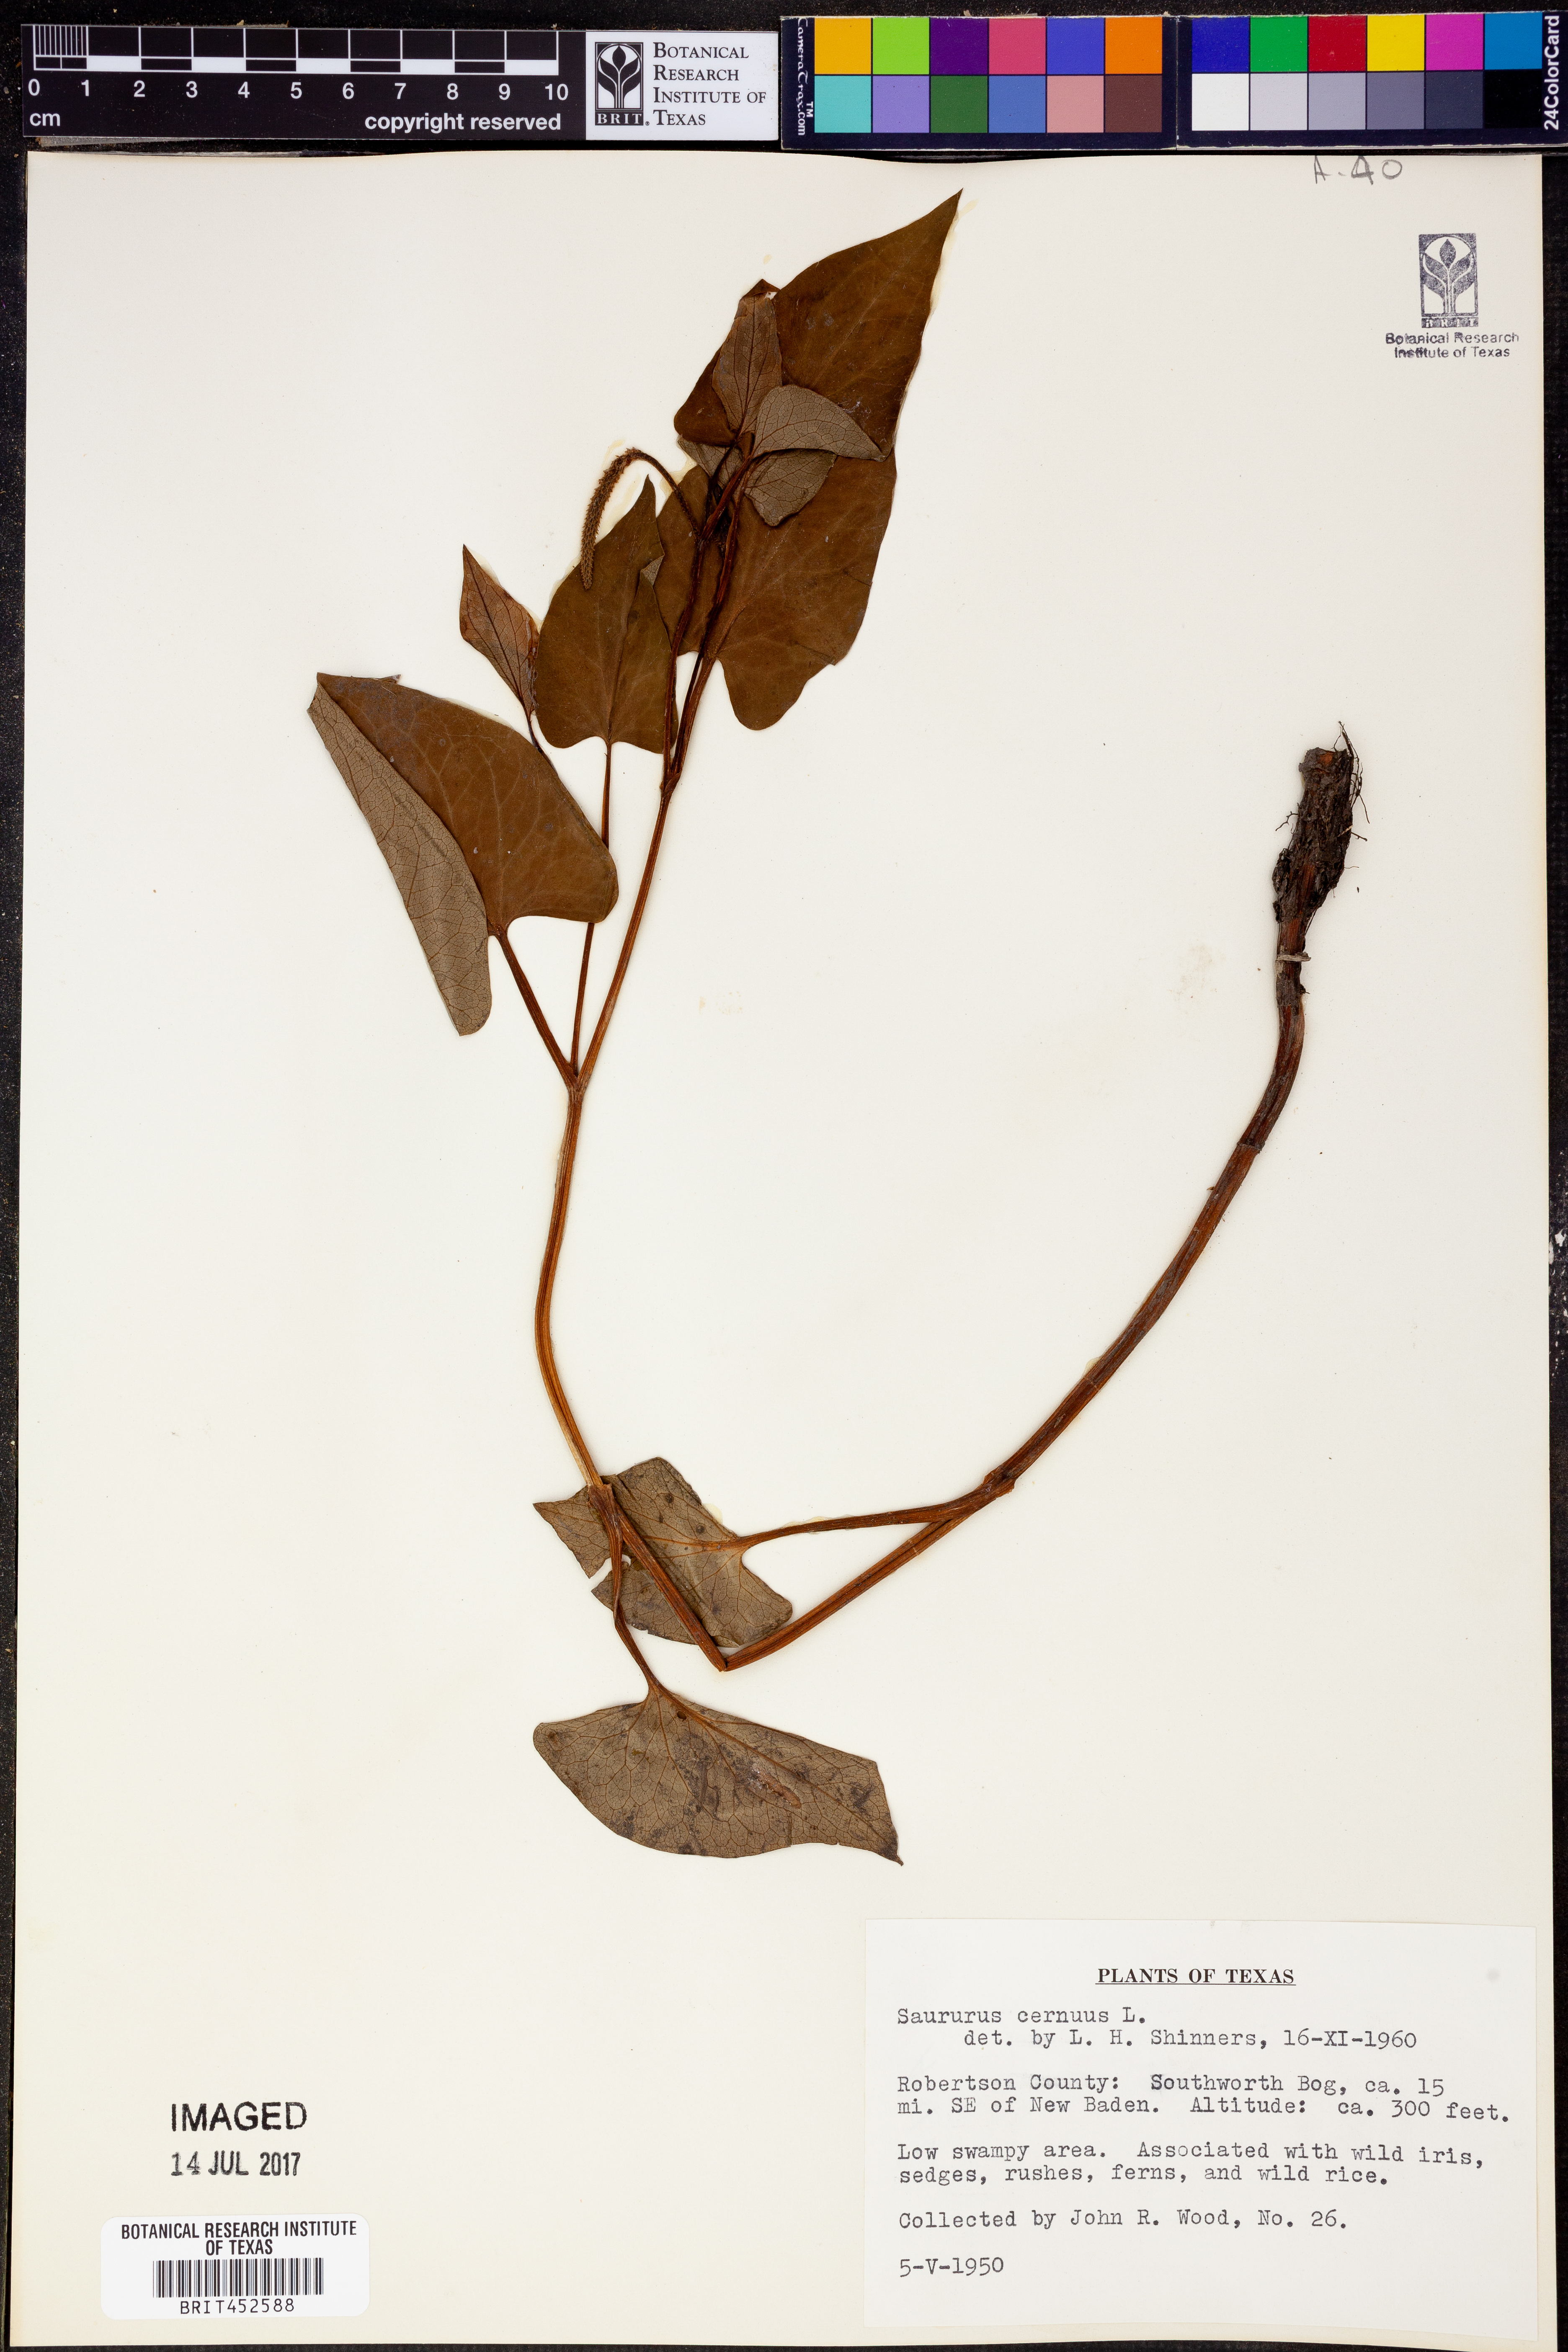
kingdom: Plantae
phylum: Tracheophyta
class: Magnoliopsida
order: Piperales
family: Saururaceae
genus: Saururus
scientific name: Saururus cernuus
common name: Lizard's-tail
